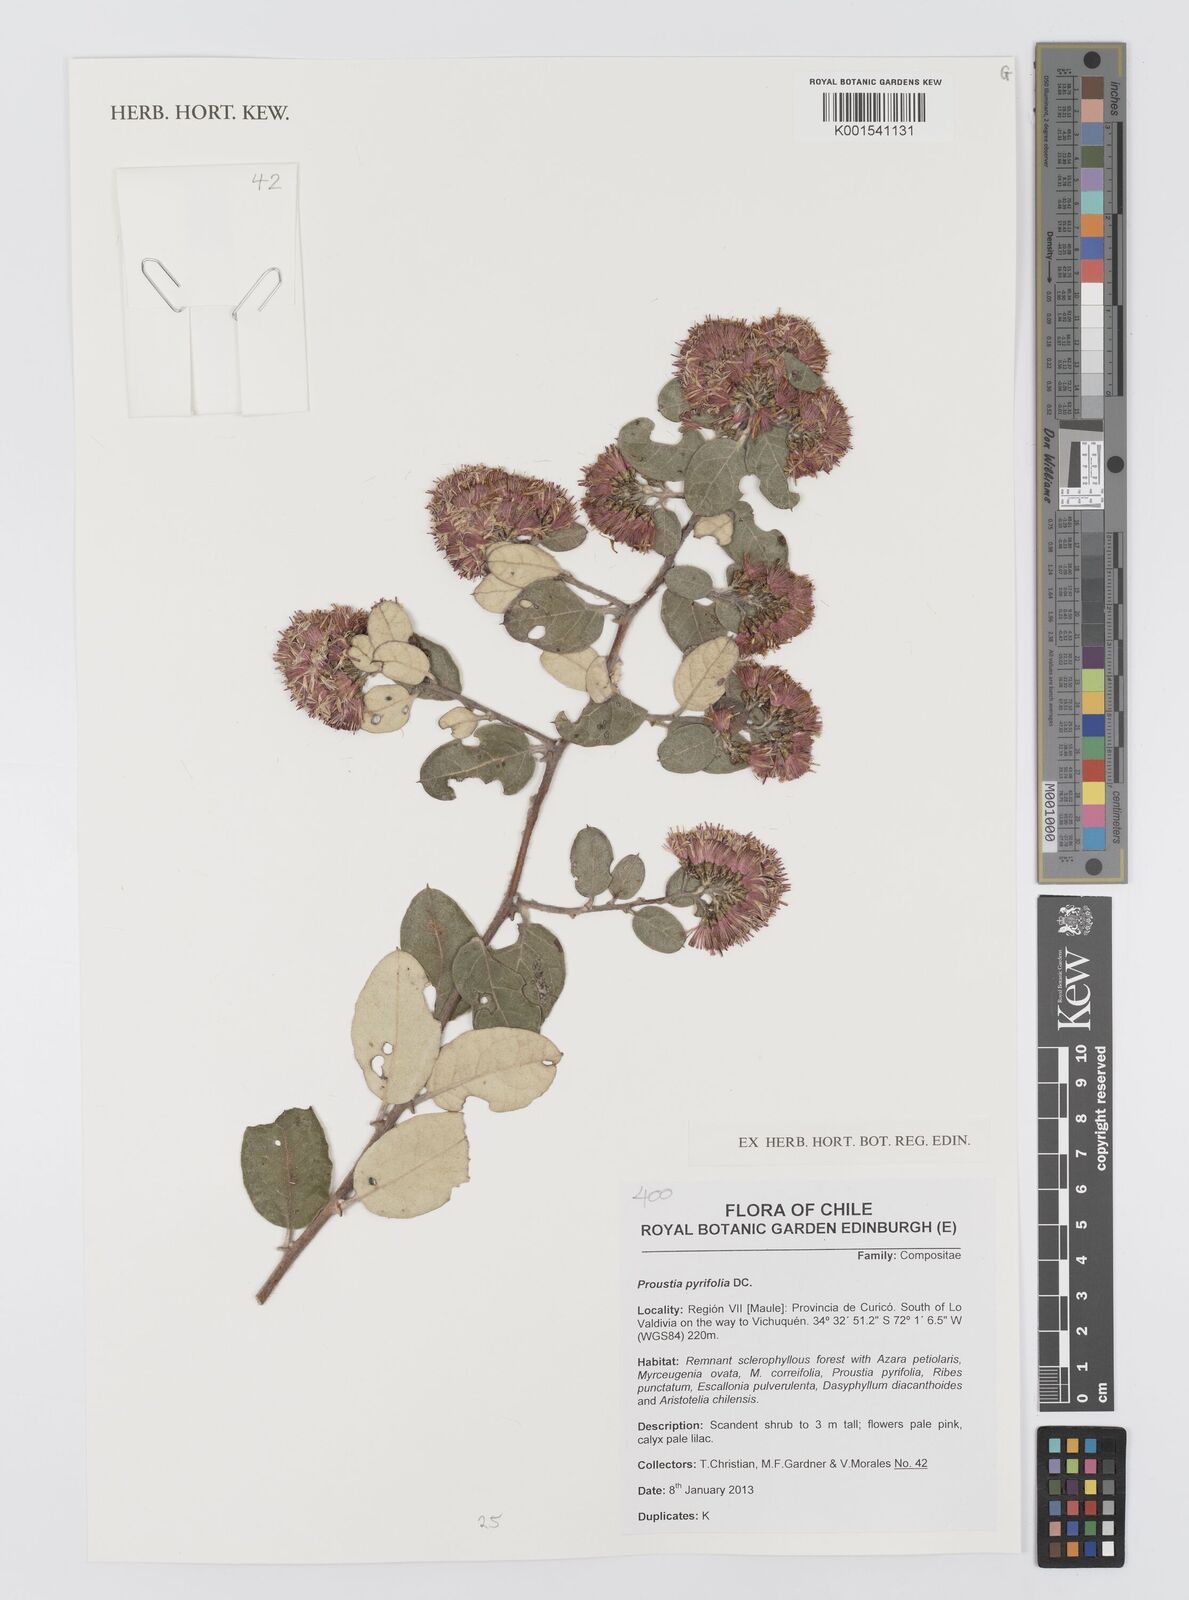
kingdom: Plantae
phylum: Tracheophyta
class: Magnoliopsida
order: Asterales
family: Asteraceae
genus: Proustia
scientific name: Proustia pyrifolia
